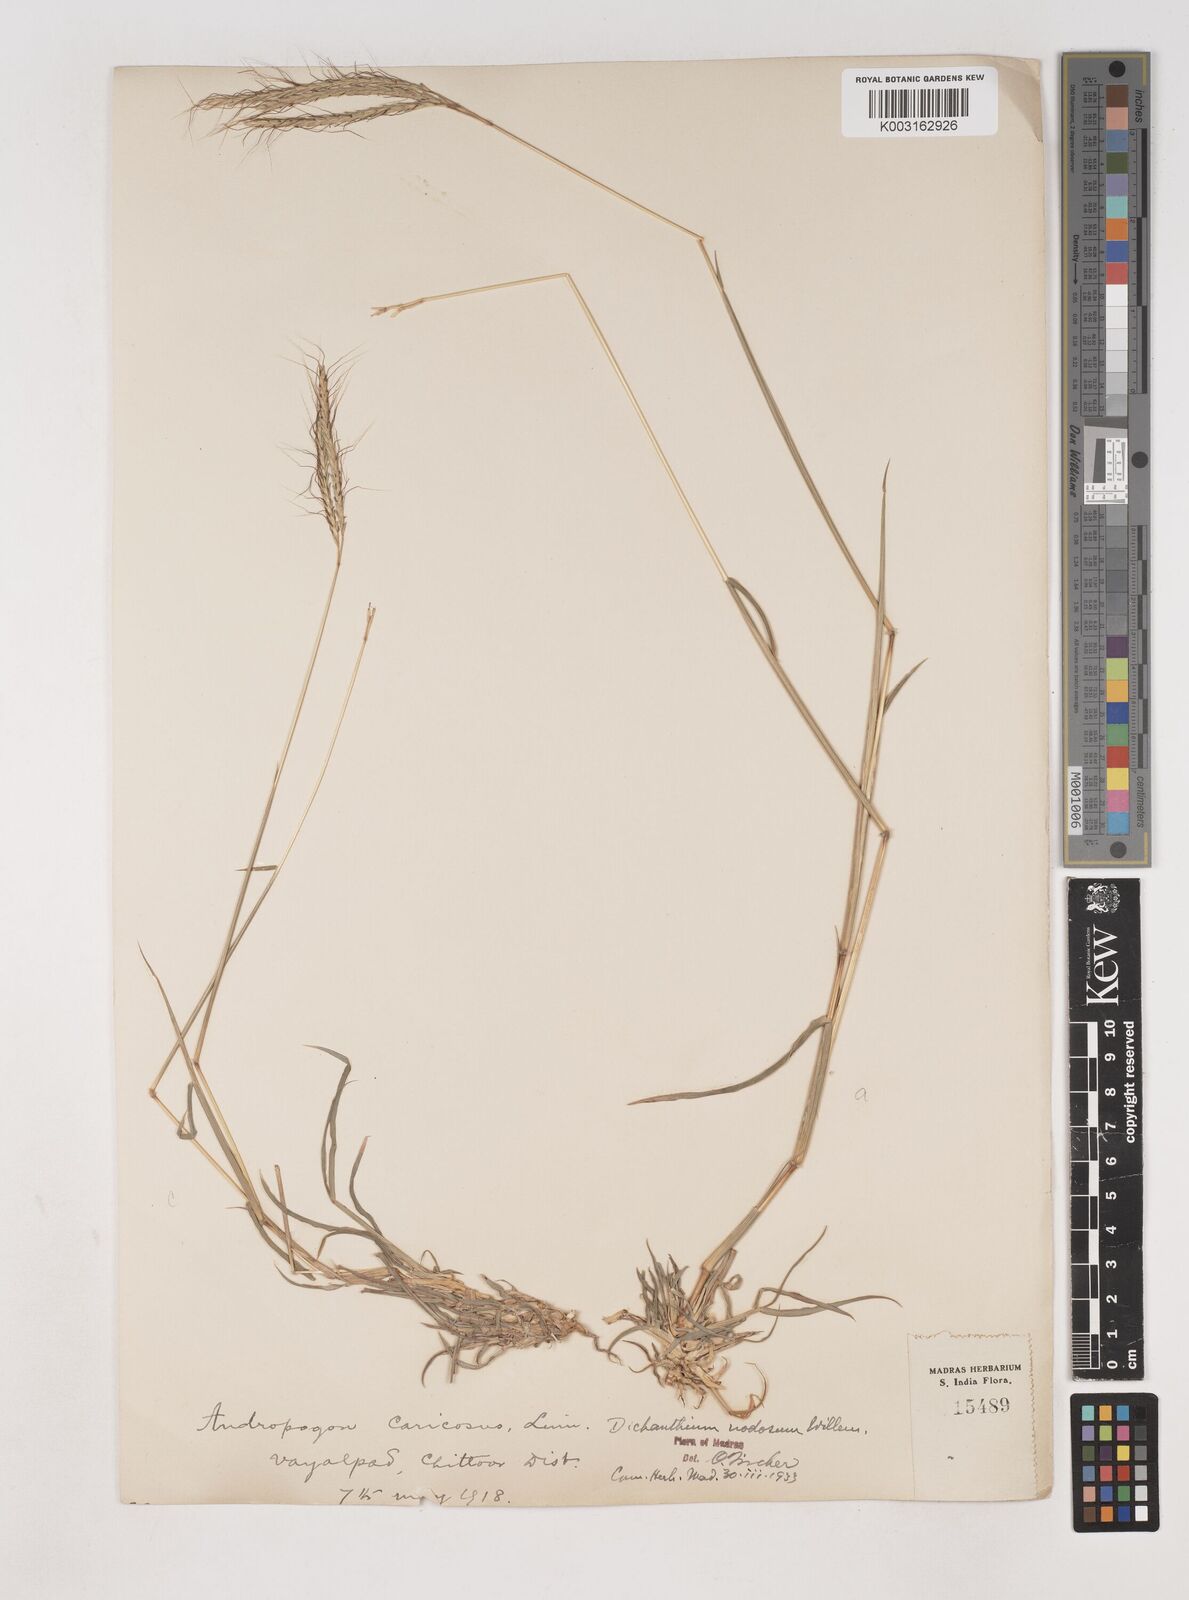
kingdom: Plantae
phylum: Tracheophyta
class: Liliopsida
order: Poales
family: Poaceae
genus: Dichanthium
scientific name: Dichanthium aristatum
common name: Angleton bluestem
